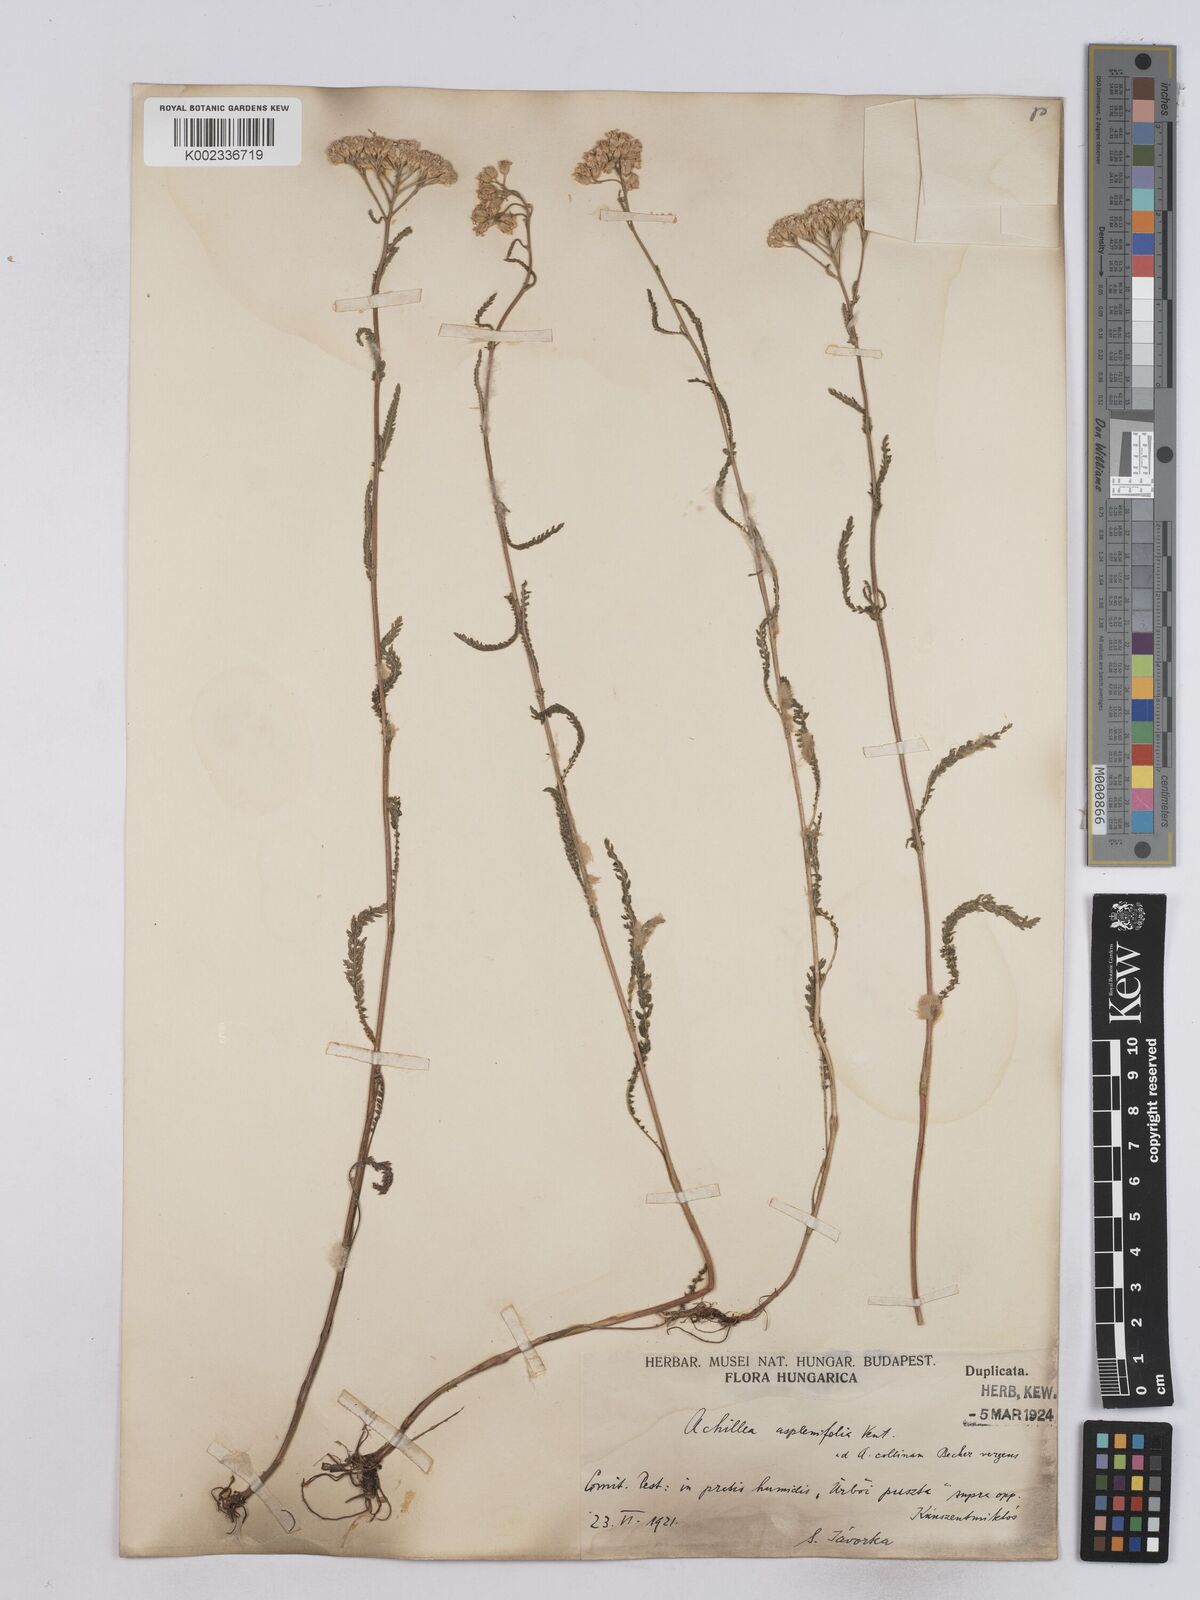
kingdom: Plantae
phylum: Tracheophyta
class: Magnoliopsida
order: Asterales
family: Asteraceae
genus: Achillea
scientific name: Achillea aspleniifolia
